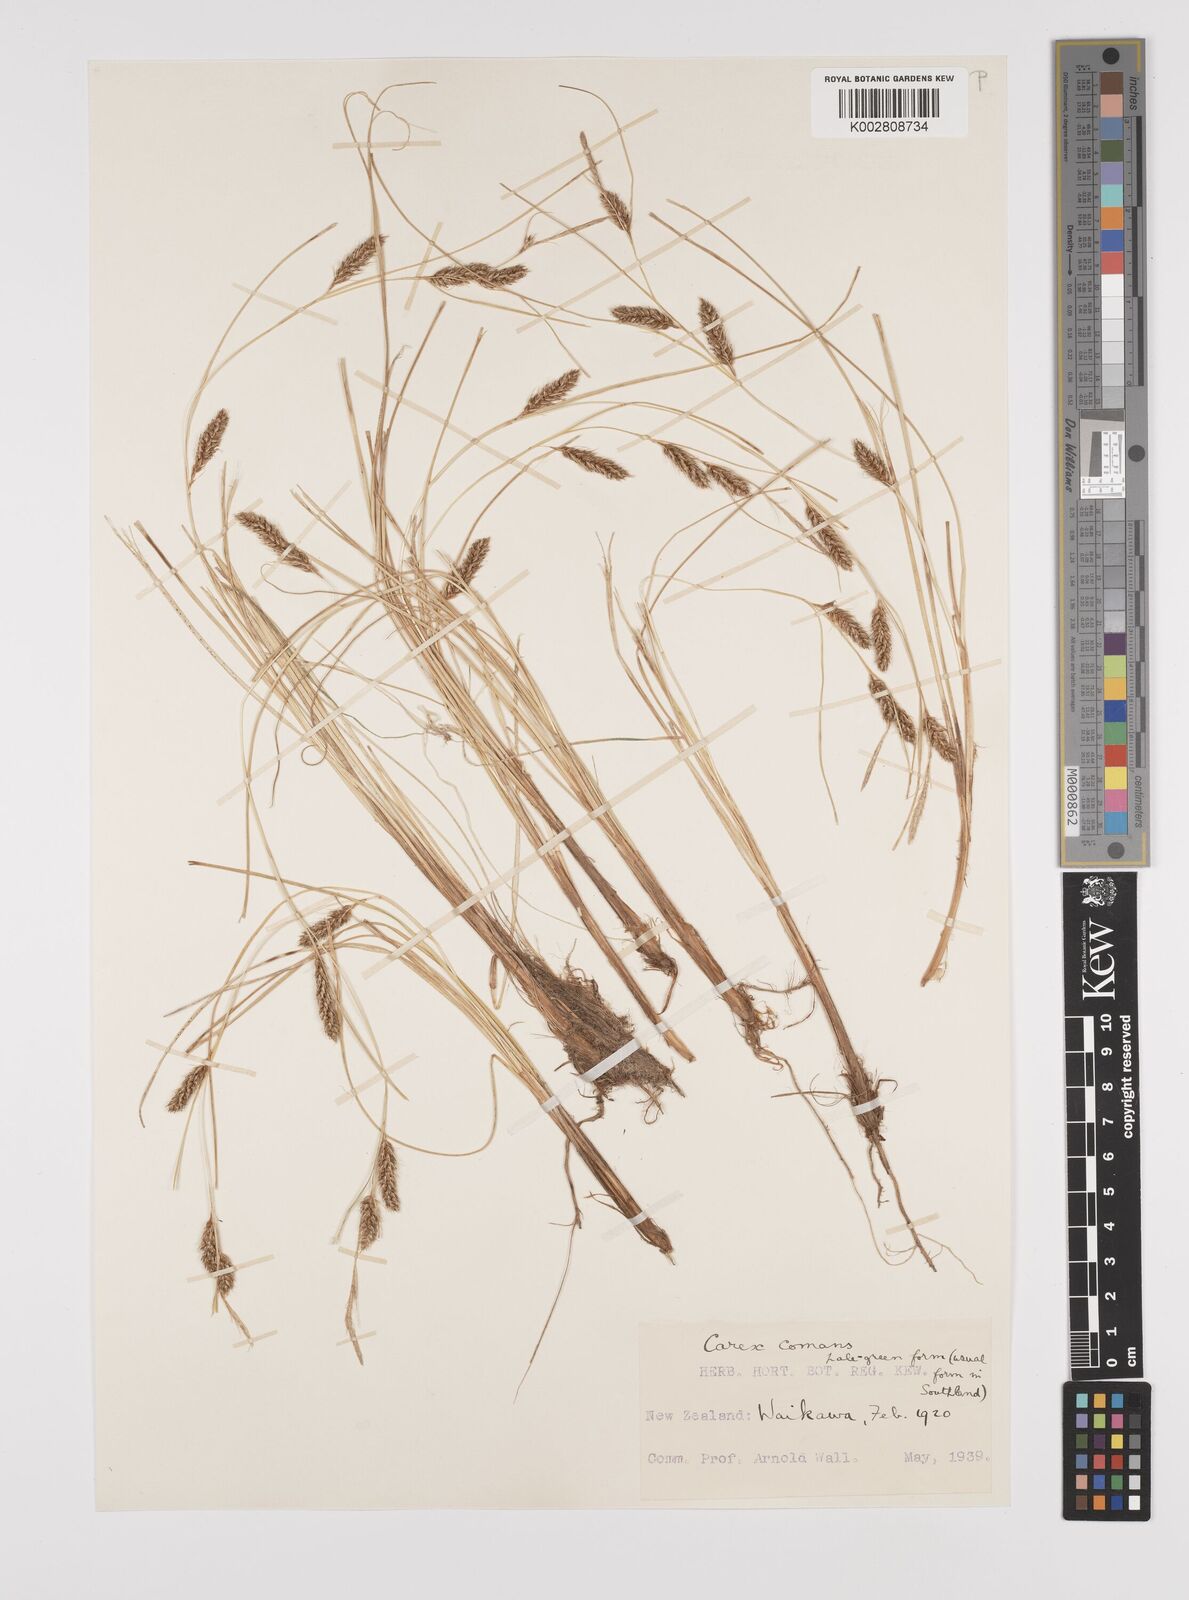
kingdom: Plantae
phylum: Tracheophyta
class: Liliopsida
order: Poales
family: Cyperaceae
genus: Carex
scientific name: Carex comans
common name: Longwood tussock
